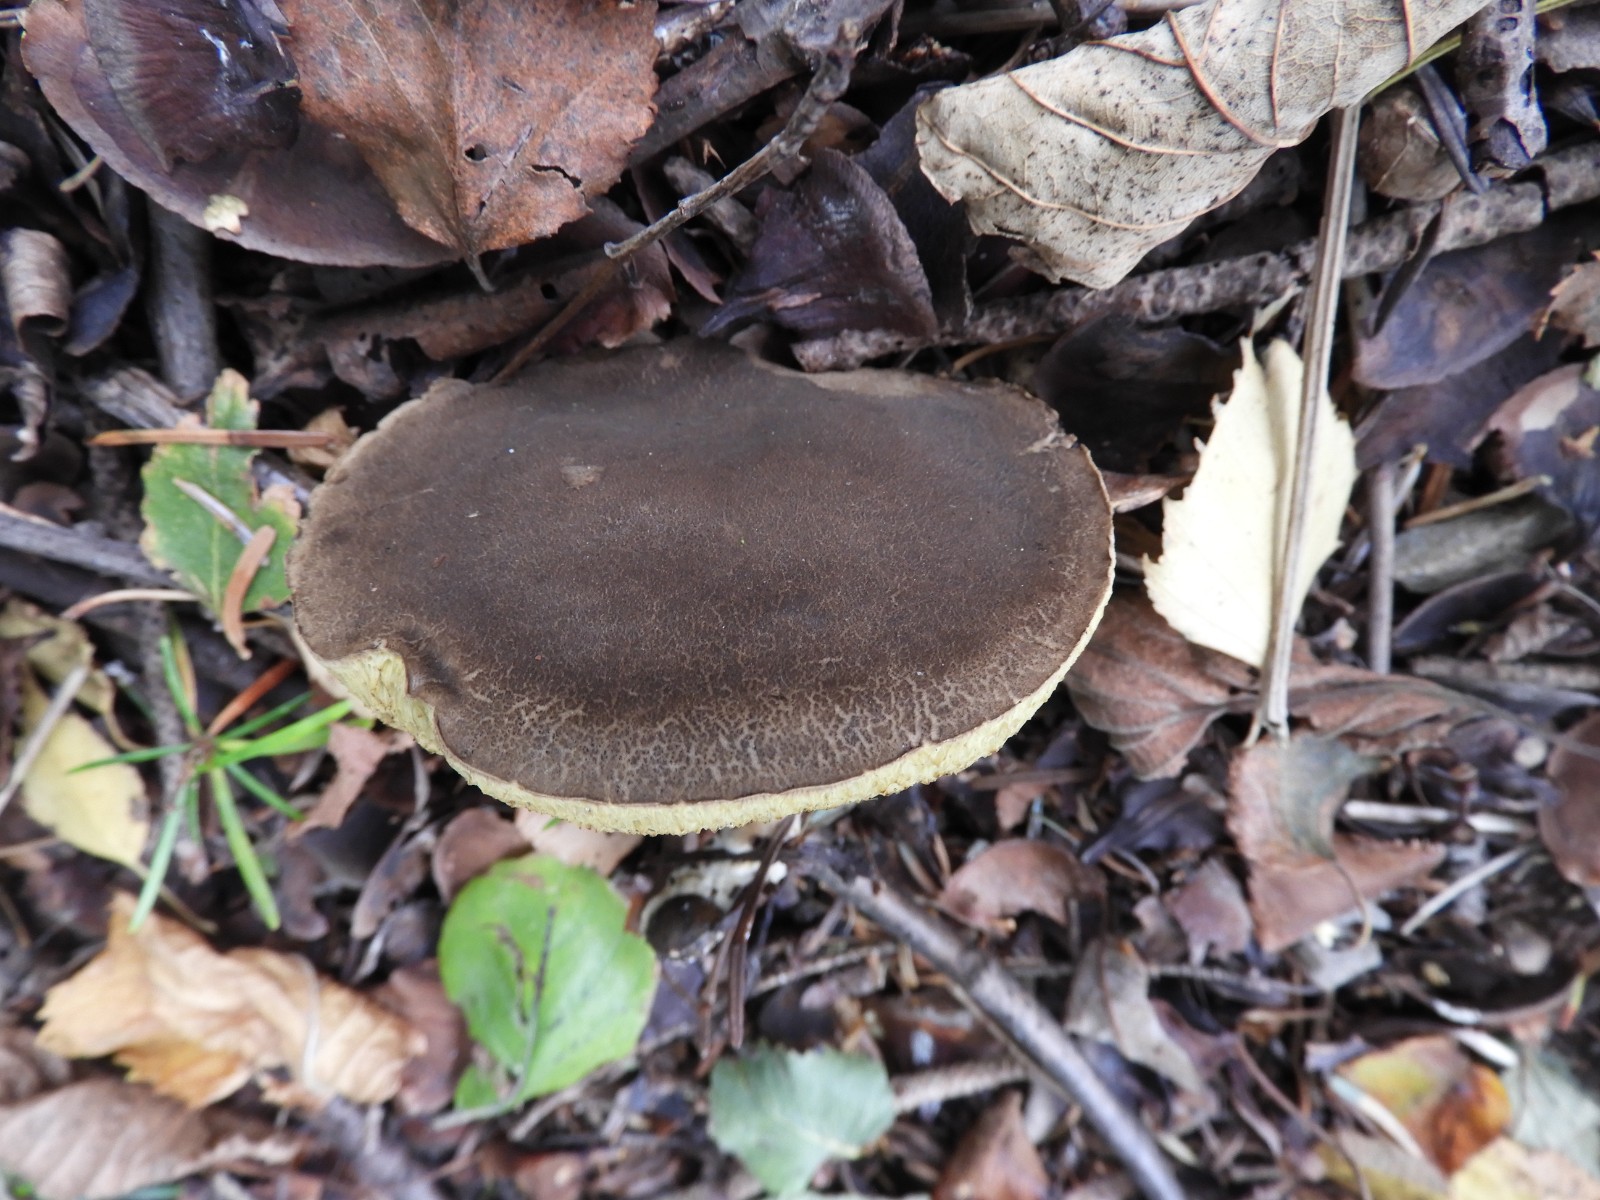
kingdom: Fungi
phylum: Basidiomycota
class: Agaricomycetes
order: Boletales
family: Boletaceae
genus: Xerocomellus
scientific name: Xerocomellus porosporus
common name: hvidsprukken rørhat
